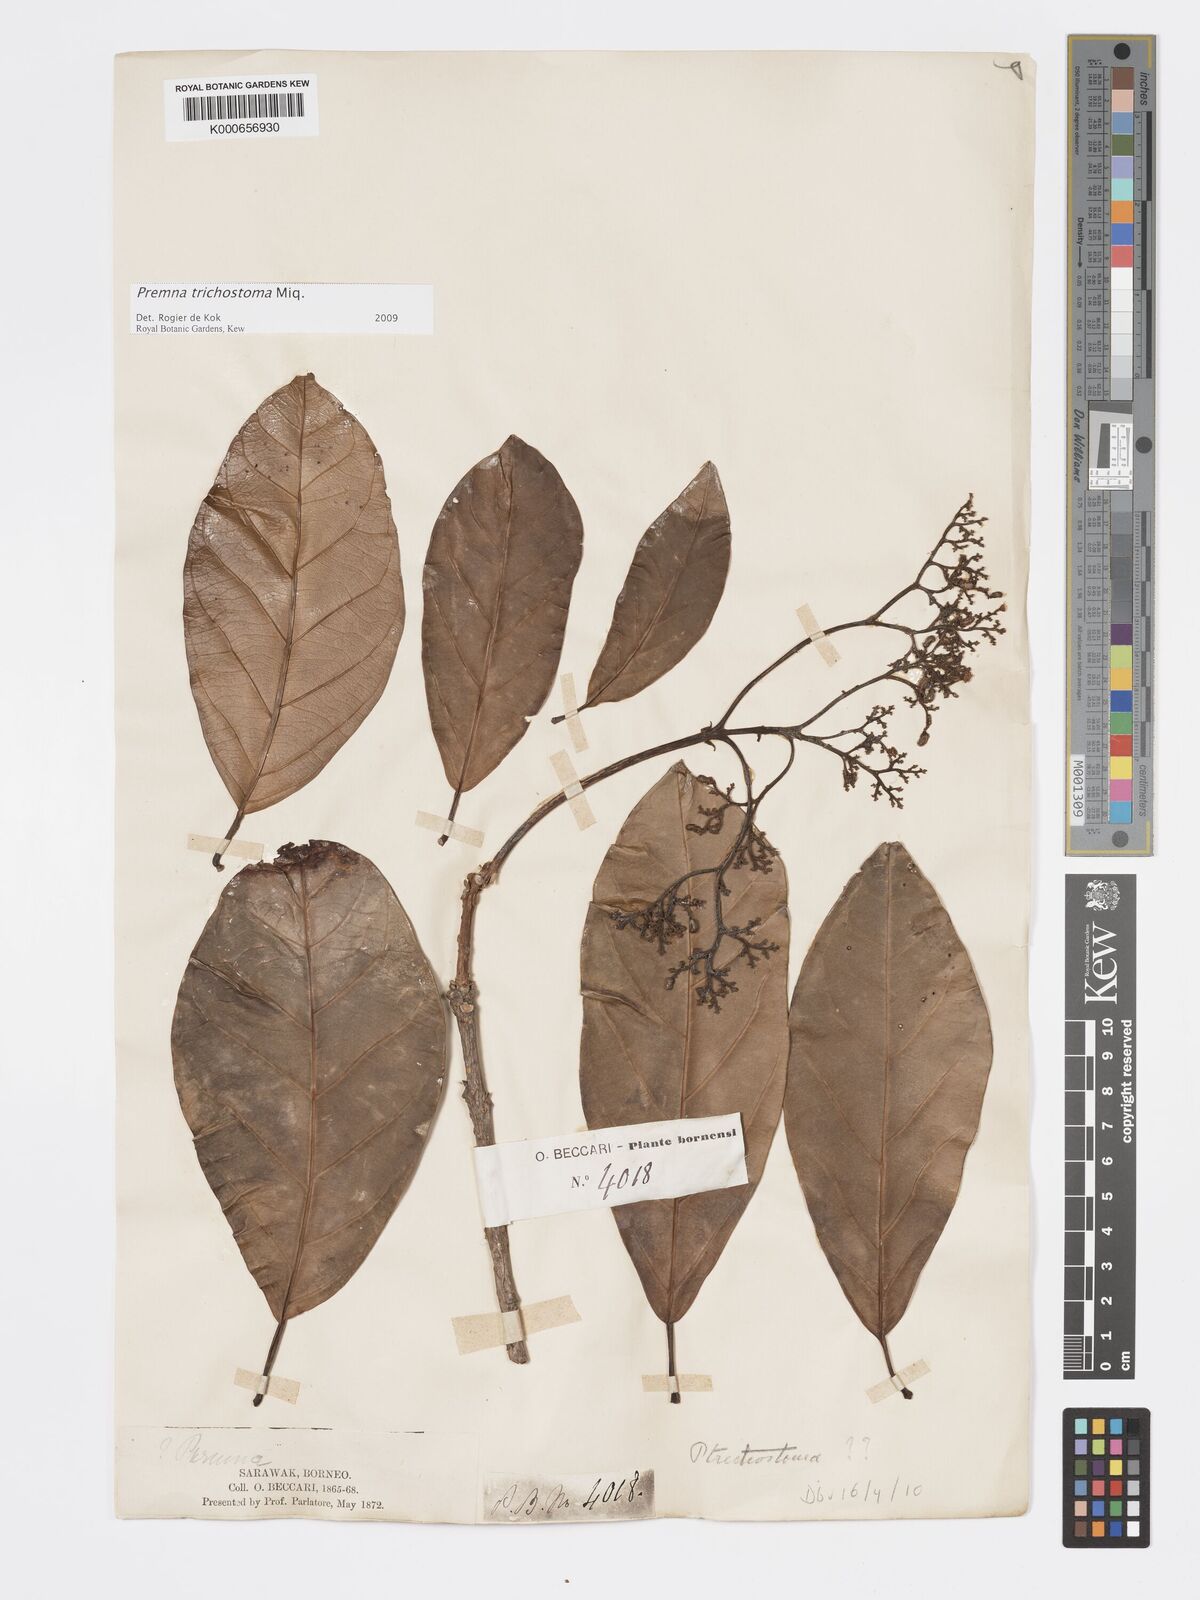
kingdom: Plantae
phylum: Tracheophyta
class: Magnoliopsida
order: Lamiales
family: Lamiaceae
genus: Premna
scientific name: Premna trichostoma
